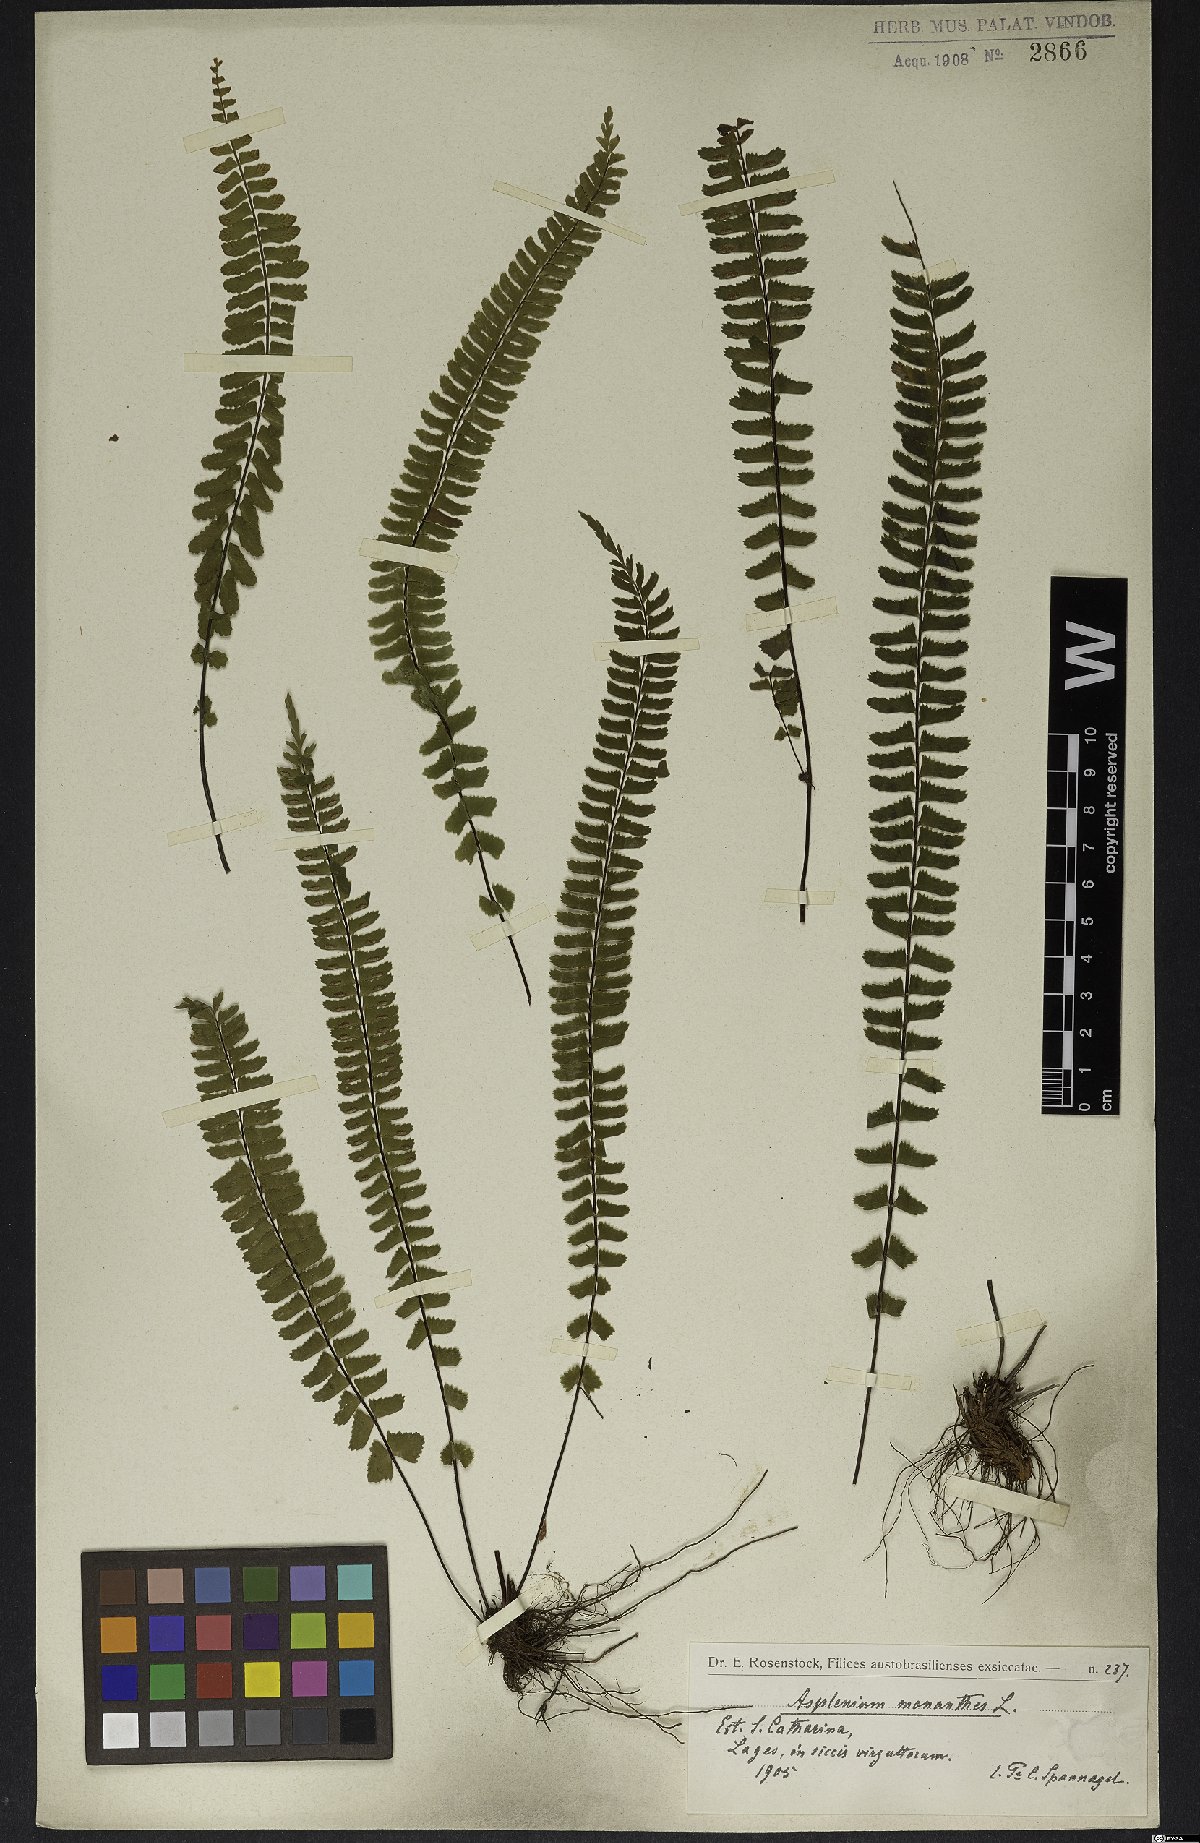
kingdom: Plantae
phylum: Tracheophyta
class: Polypodiopsida
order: Polypodiales
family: Aspleniaceae
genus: Asplenium
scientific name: Asplenium monanthes
